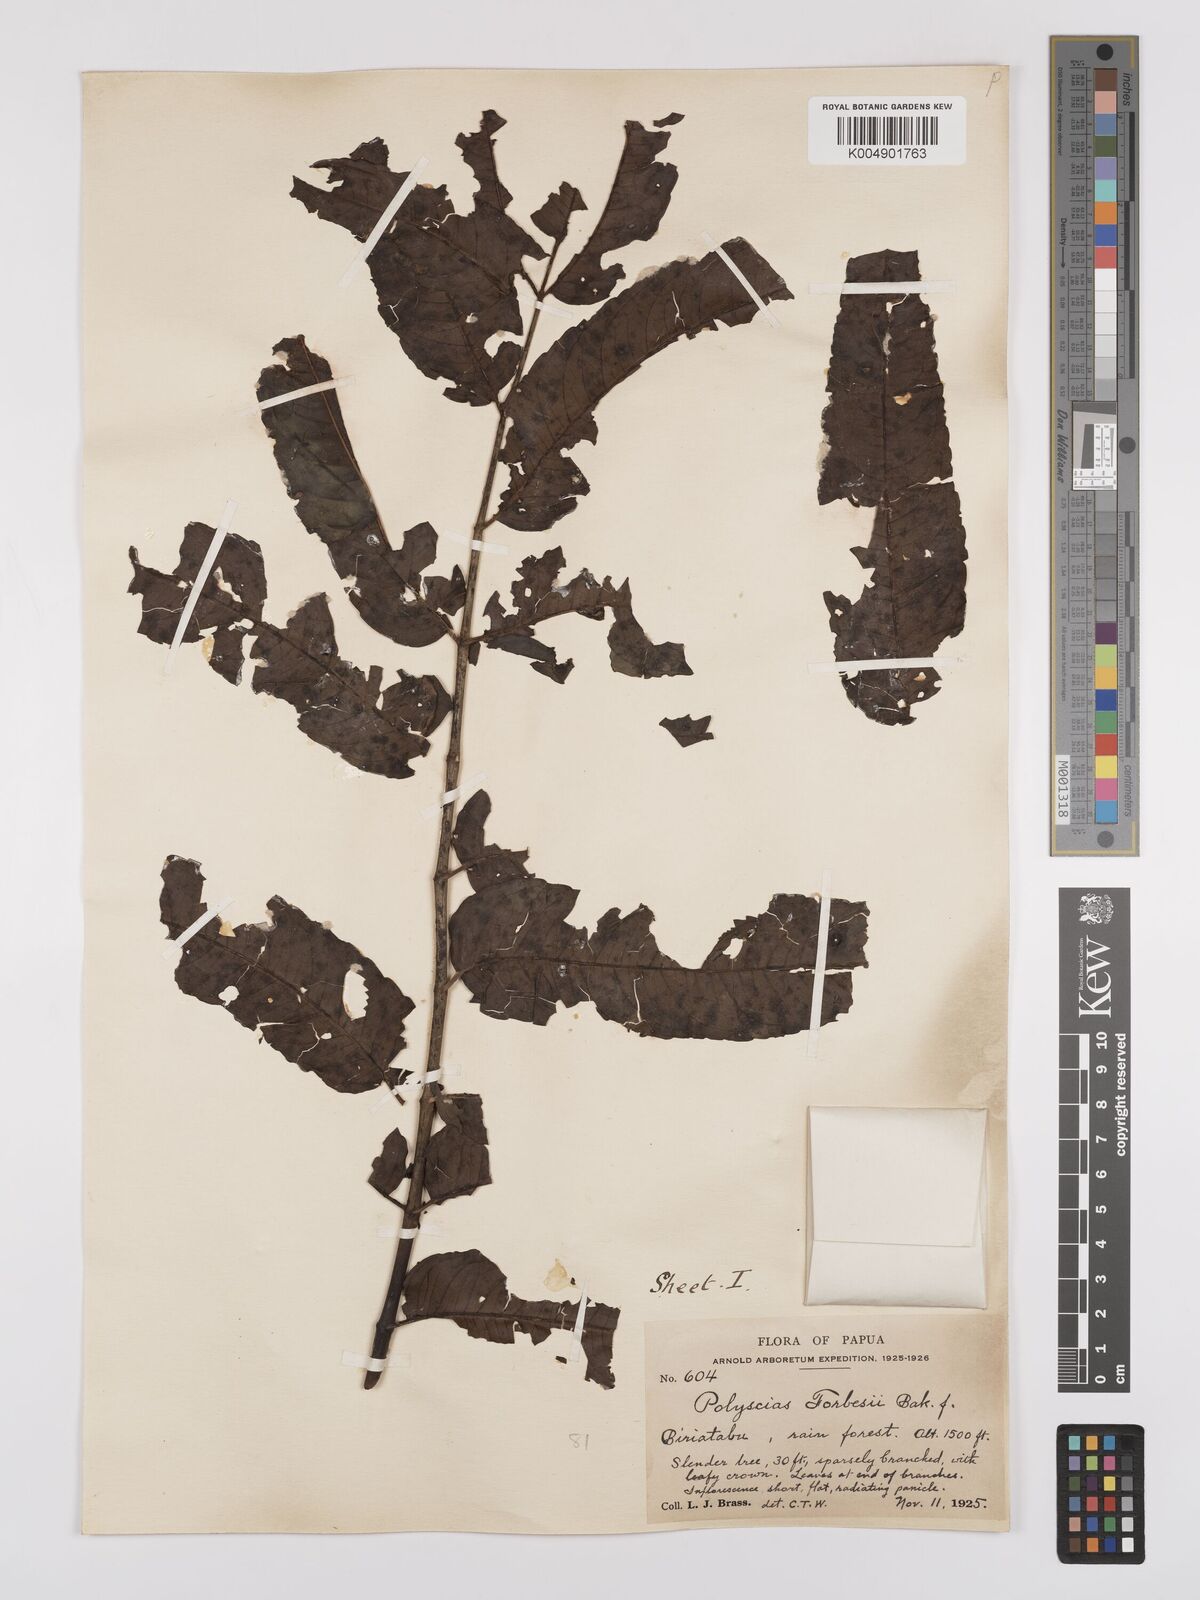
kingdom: Plantae
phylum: Tracheophyta
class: Magnoliopsida
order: Apiales
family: Araliaceae
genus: Polyscias
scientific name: Polyscias ledermannii
